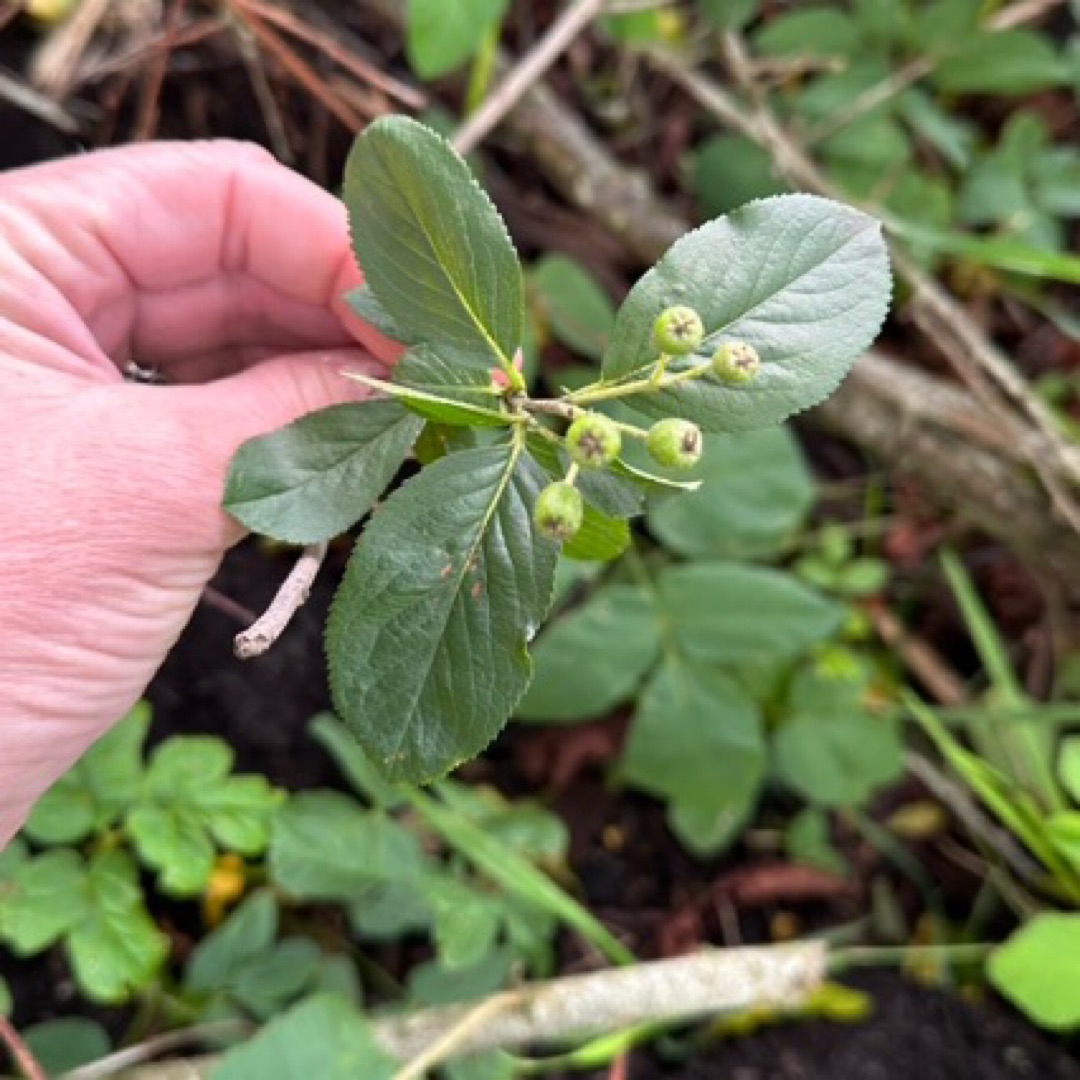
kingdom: Plantae
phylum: Tracheophyta
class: Magnoliopsida
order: Rosales
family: Rosaceae
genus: Aronia
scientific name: Aronia
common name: Surbærslægten
